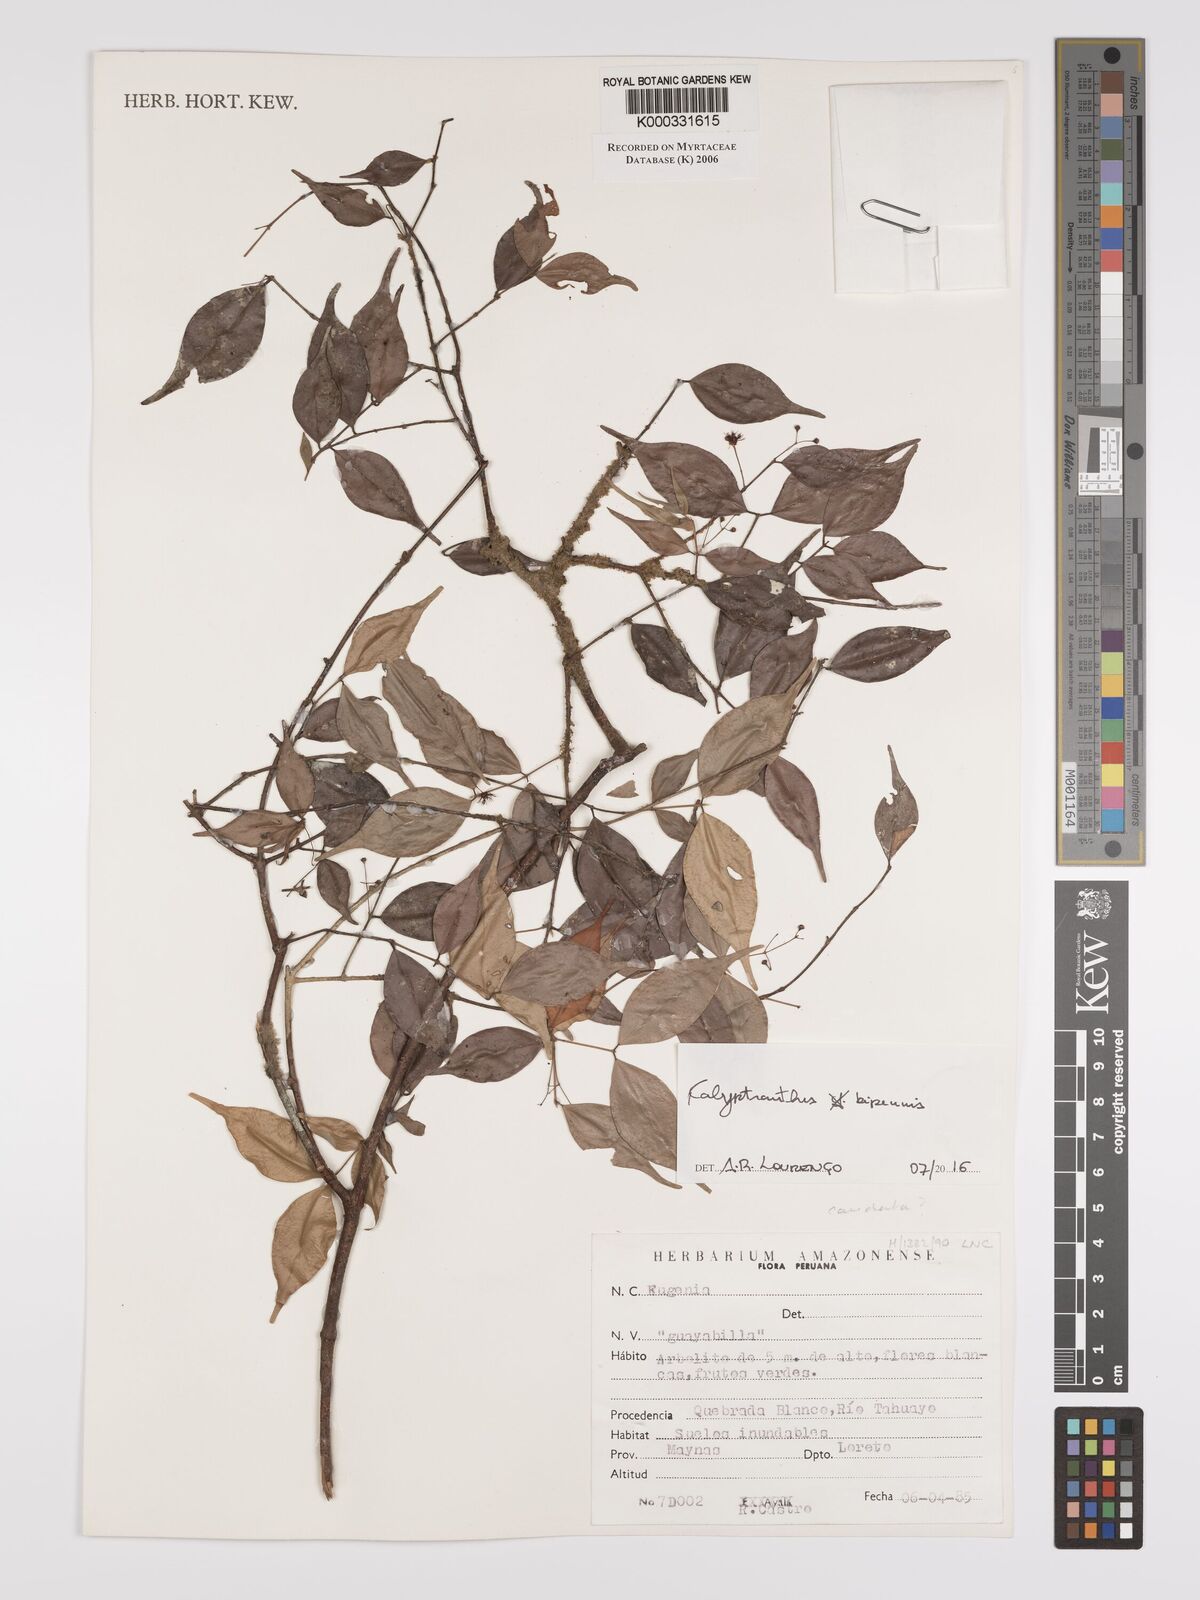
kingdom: Plantae
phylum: Tracheophyta
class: Magnoliopsida
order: Myrtales
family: Myrtaceae
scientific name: Myrtaceae
